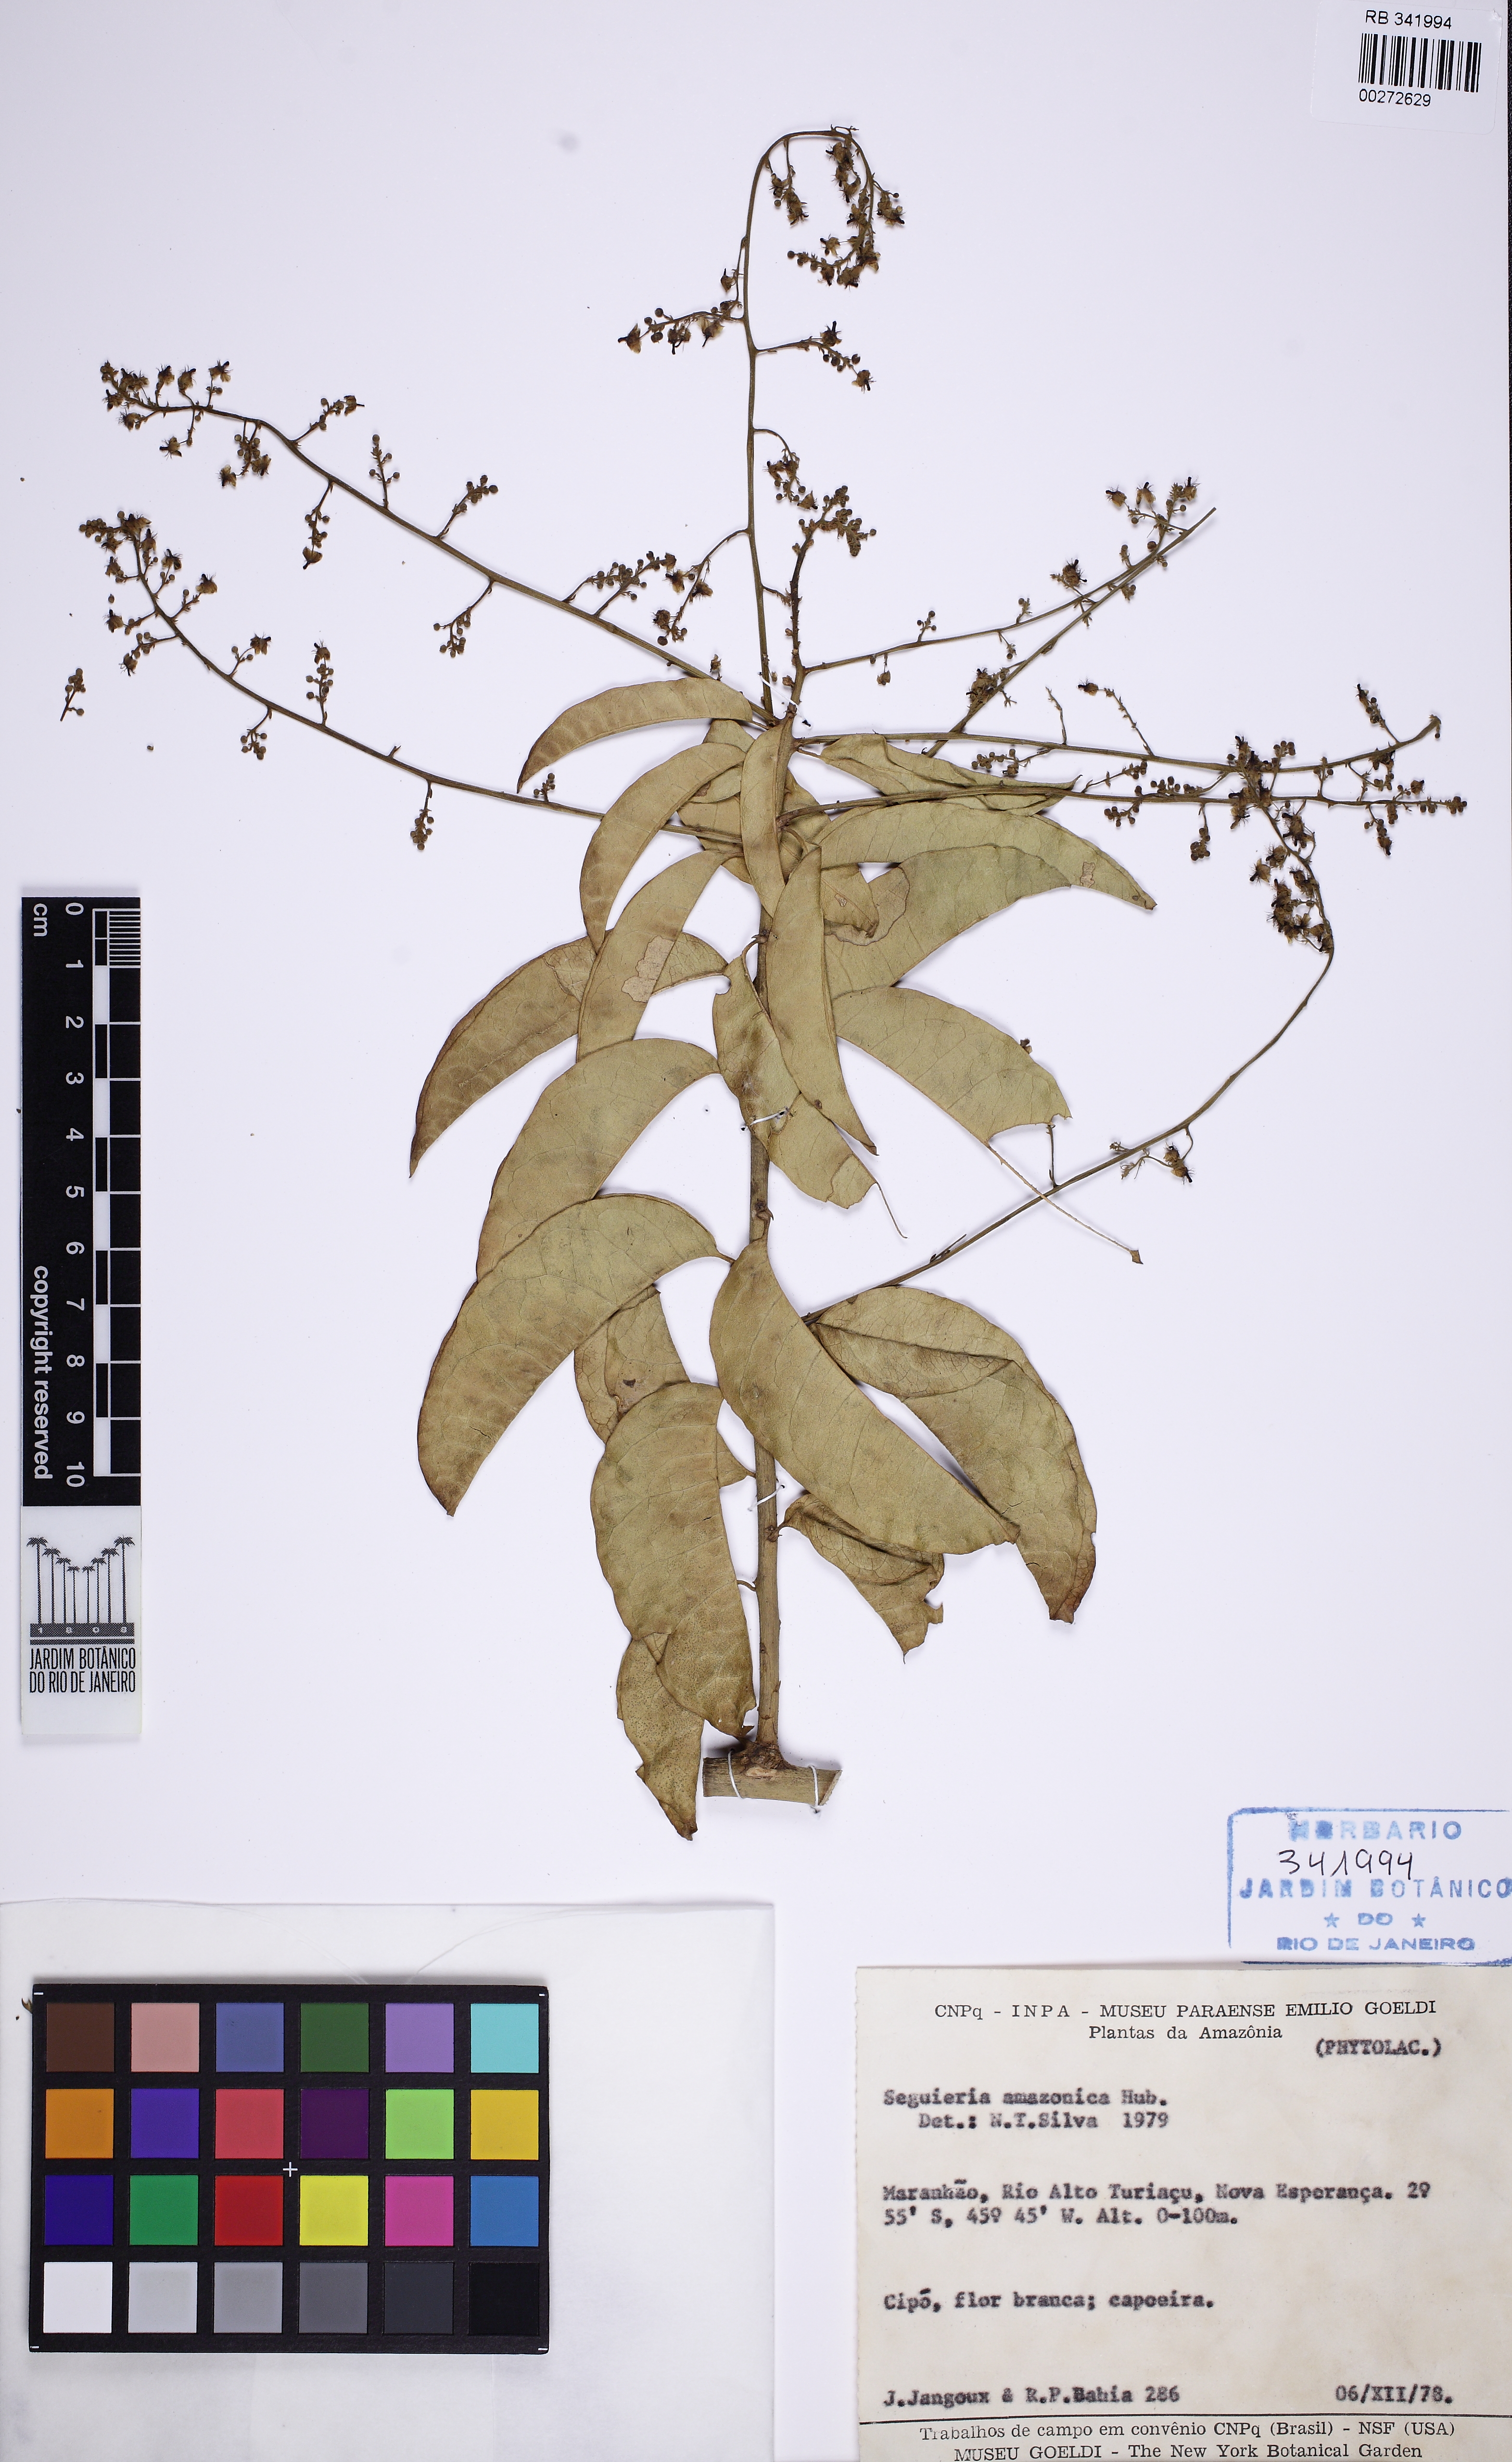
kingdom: Plantae
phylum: Tracheophyta
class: Magnoliopsida
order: Caryophyllales
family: Phytolaccaceae
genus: Seguieria
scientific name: Seguieria
